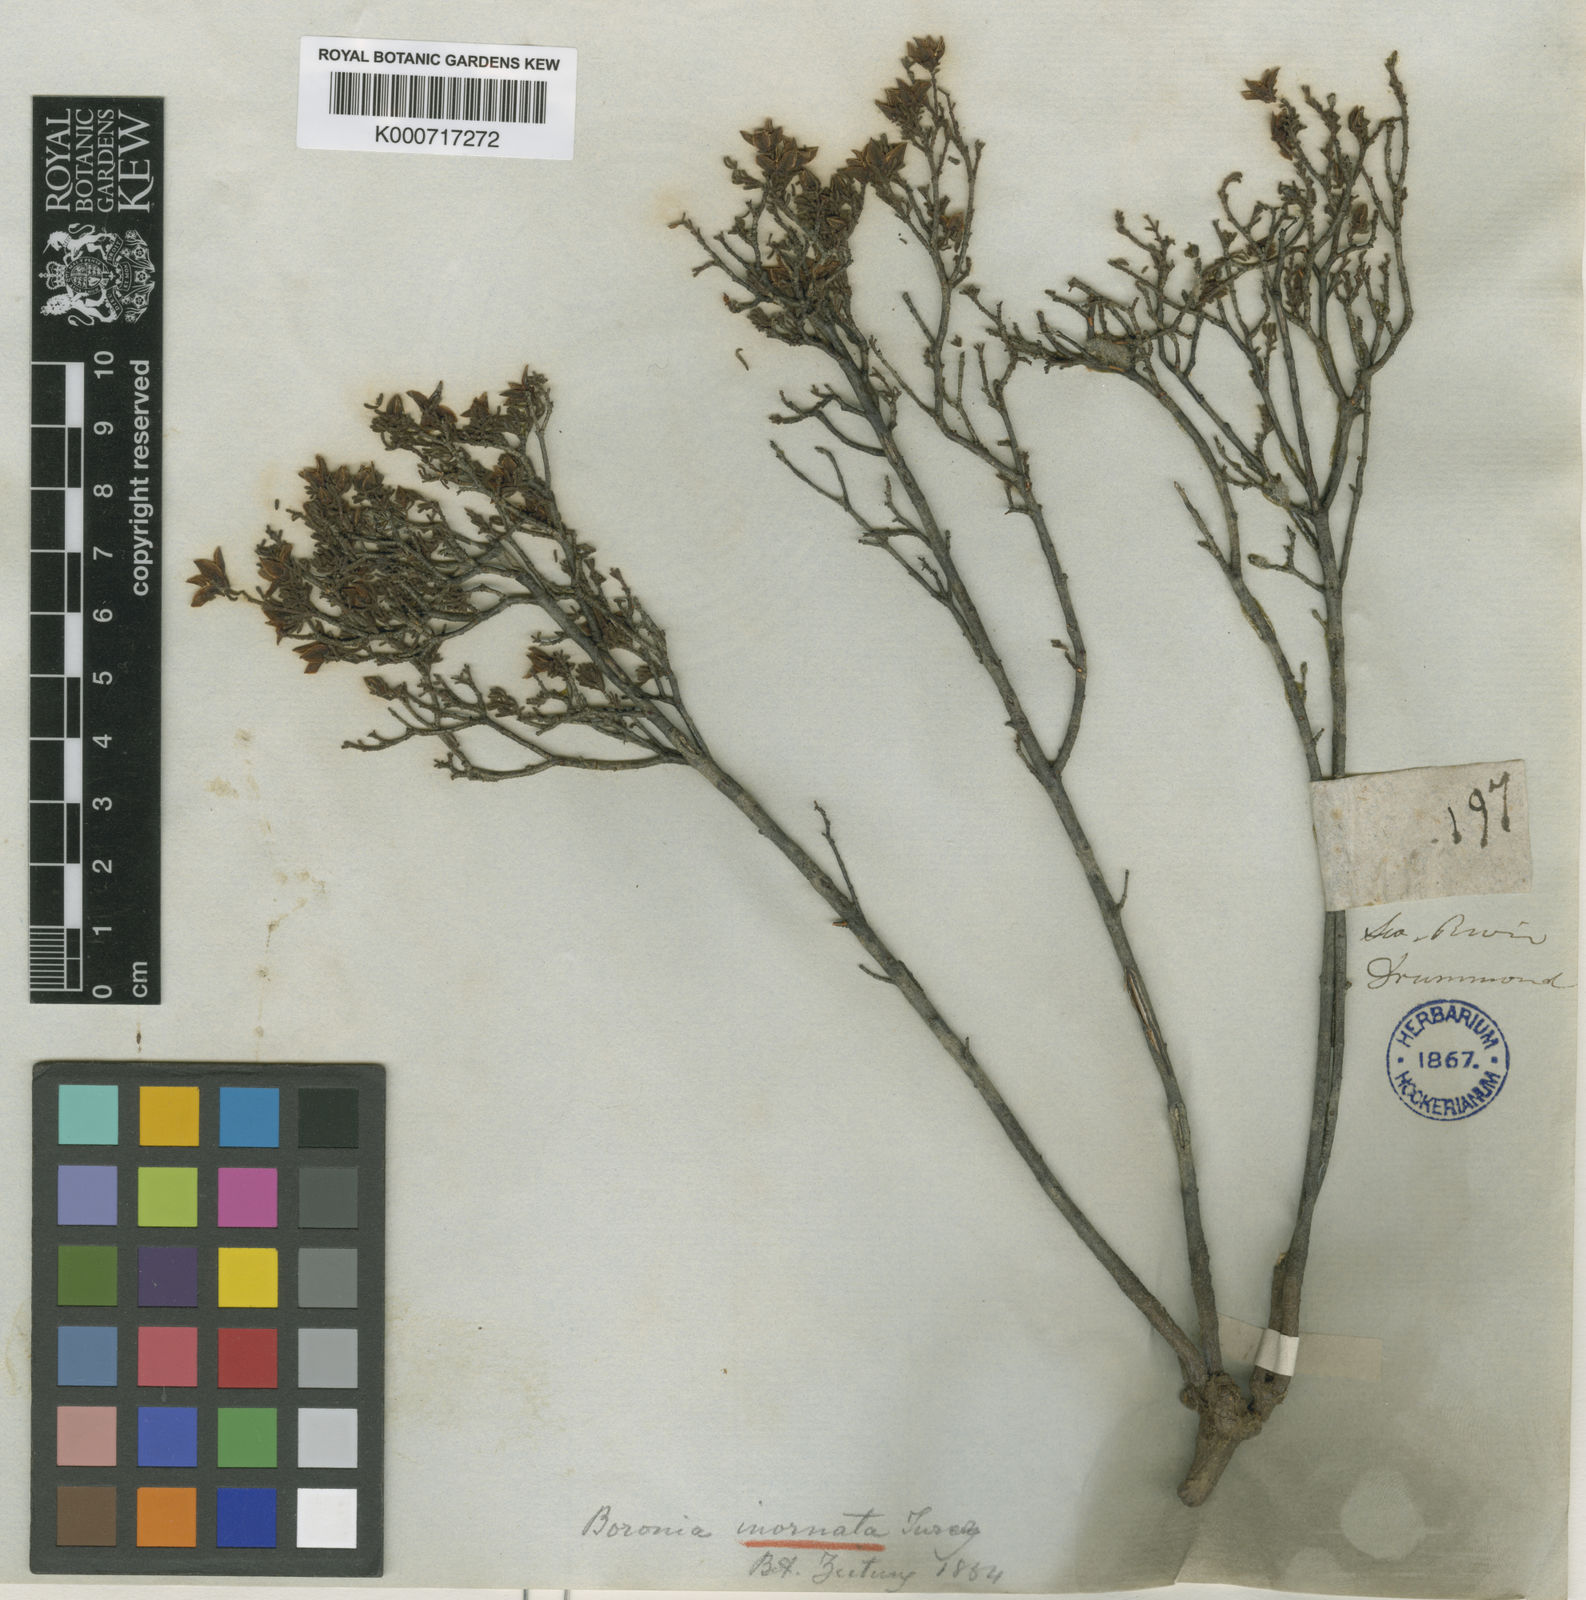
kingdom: Plantae
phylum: Tracheophyta
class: Magnoliopsida
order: Sapindales
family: Rutaceae
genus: Boronia
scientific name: Boronia inornata
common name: Desert boronia
